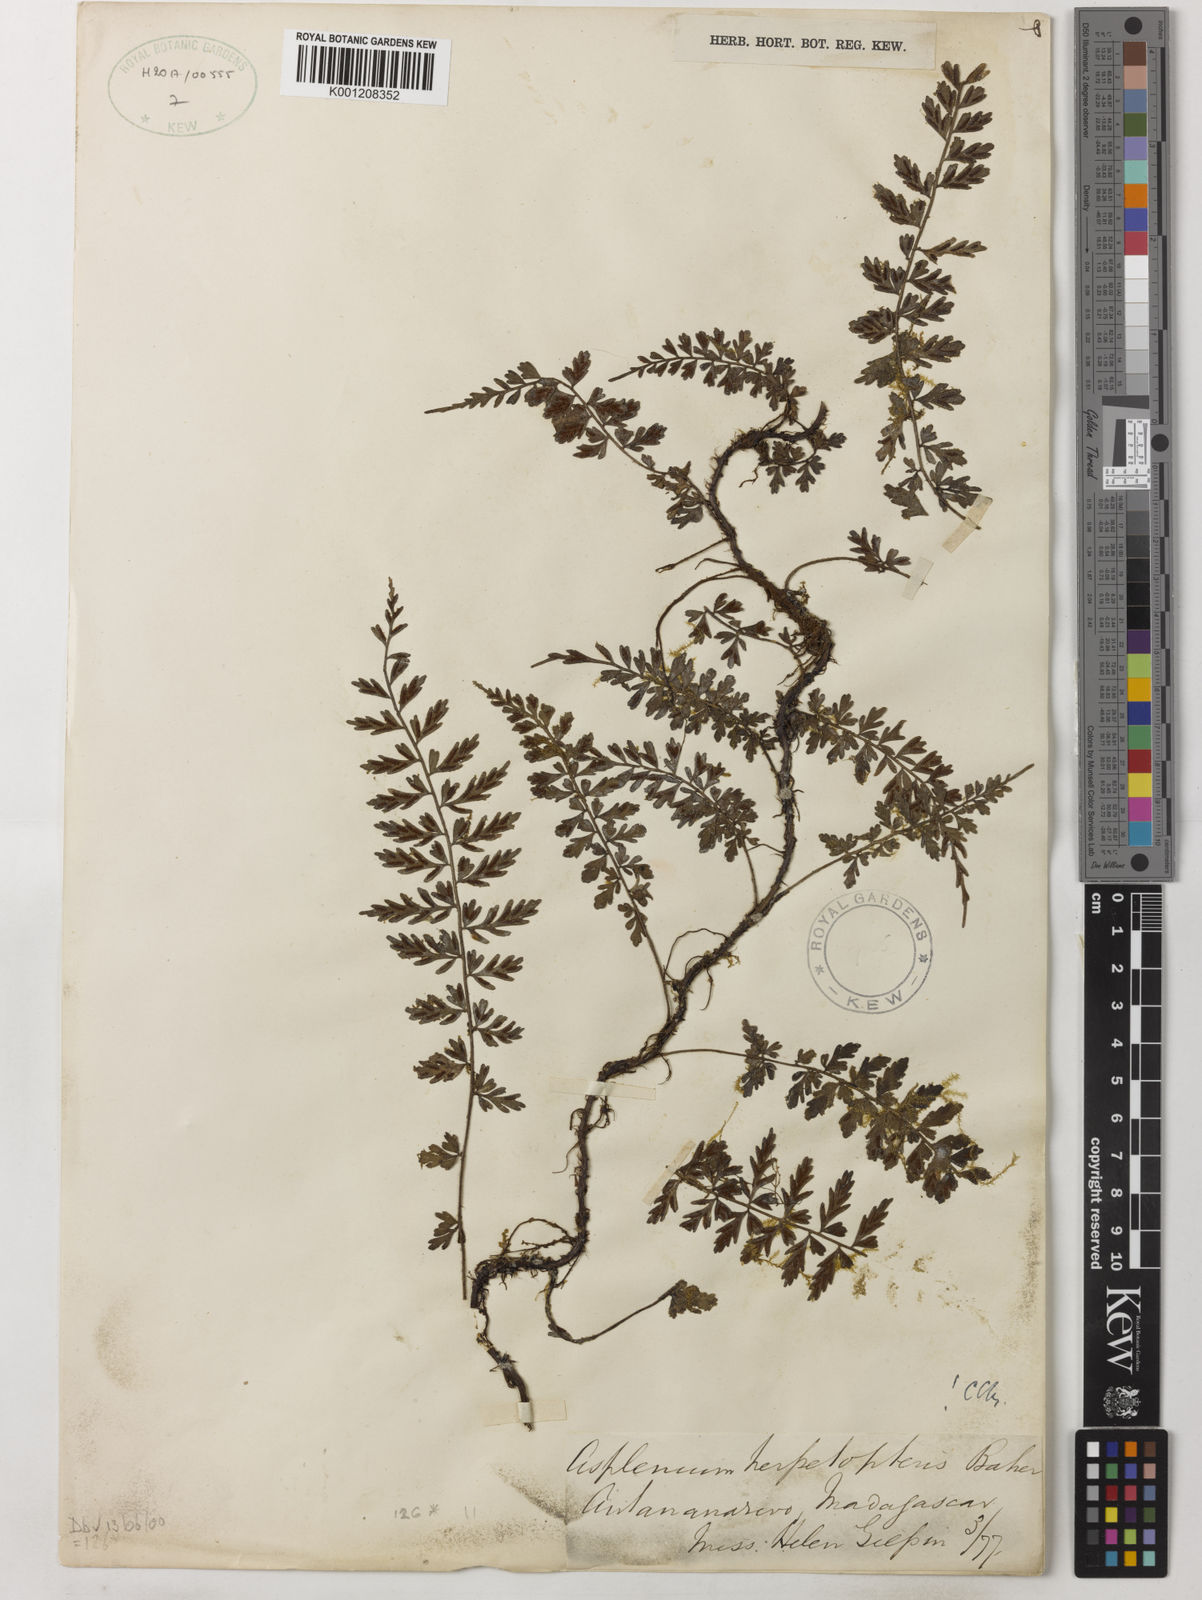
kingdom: Plantae
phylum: Tracheophyta
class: Polypodiopsida
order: Polypodiales
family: Aspleniaceae
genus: Asplenium
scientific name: Asplenium herpetopteris
